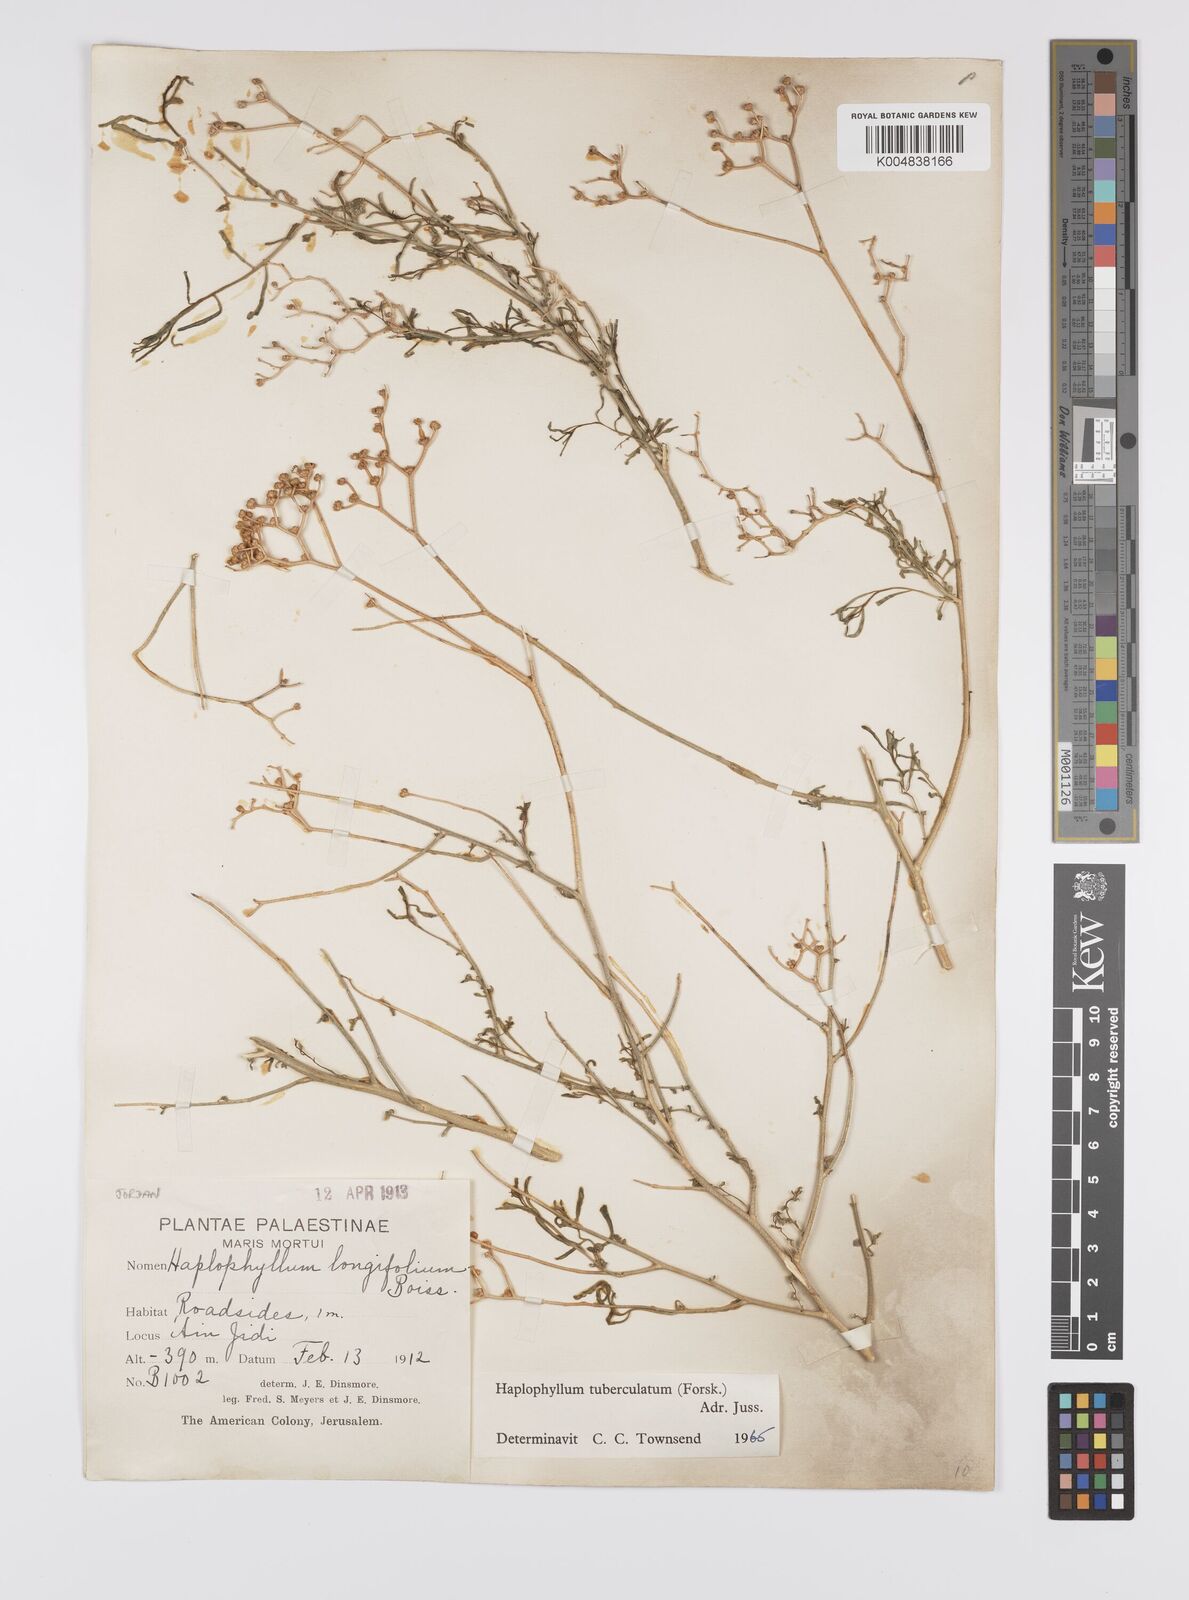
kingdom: Plantae
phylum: Tracheophyta
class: Magnoliopsida
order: Sapindales
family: Rutaceae
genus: Haplophyllum
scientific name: Haplophyllum tuberculatum
